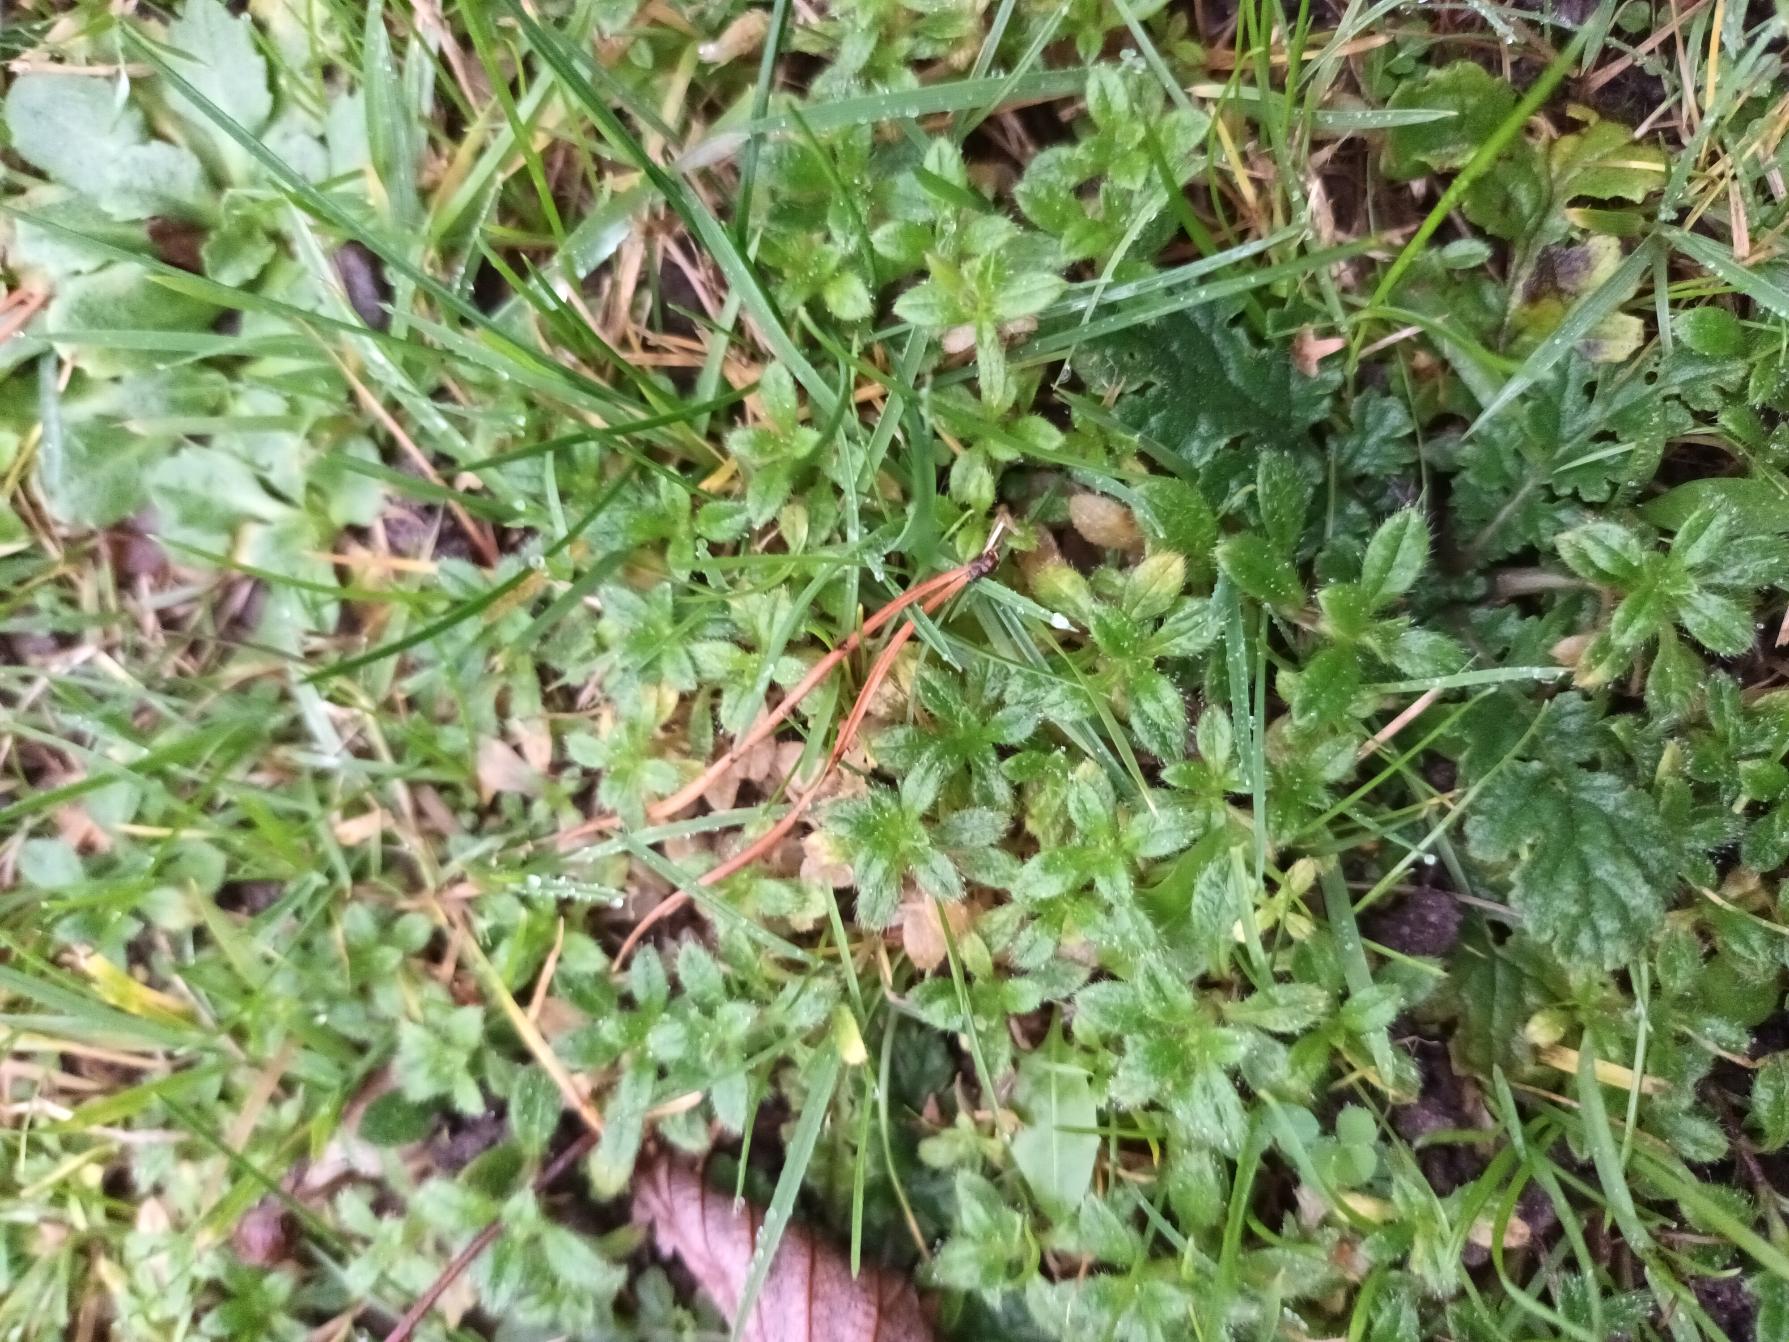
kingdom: Plantae
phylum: Tracheophyta
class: Magnoliopsida
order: Caryophyllales
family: Caryophyllaceae
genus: Cerastium
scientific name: Cerastium fontanum
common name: Almindelig hønsetarm
